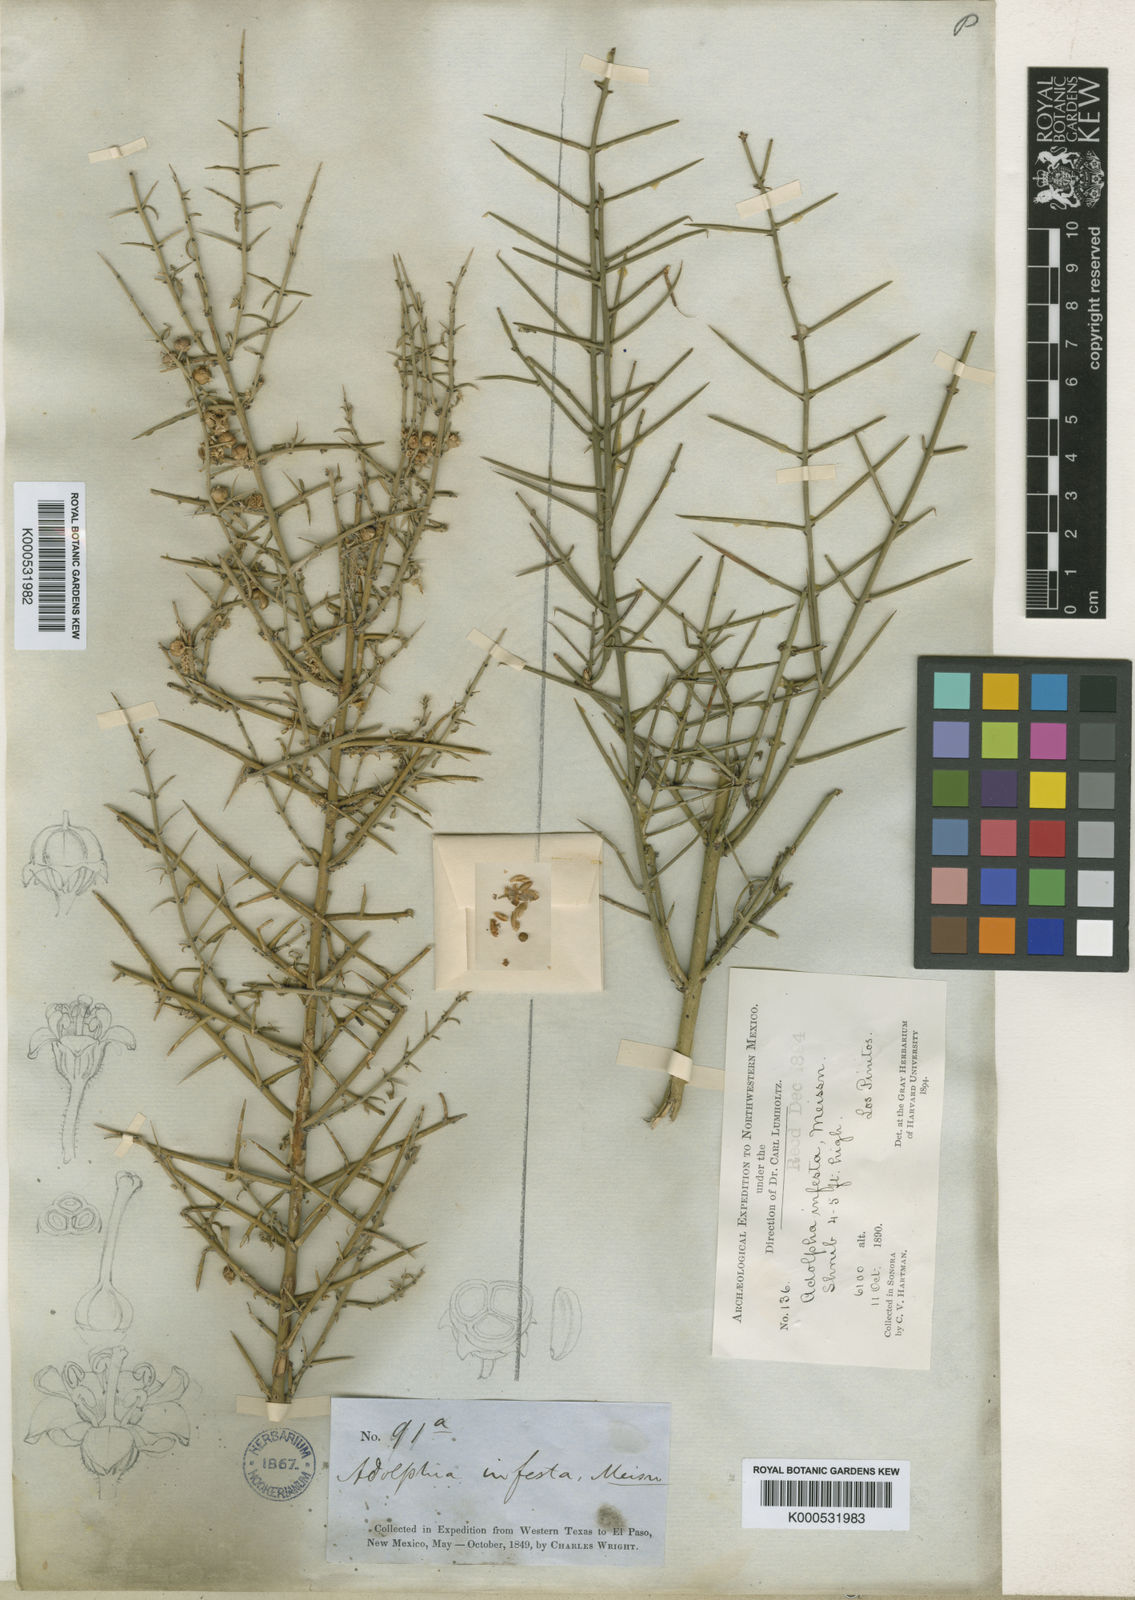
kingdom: Plantae
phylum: Tracheophyta
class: Magnoliopsida
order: Rosales
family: Rhamnaceae
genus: Adolphia
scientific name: Adolphia infesta
